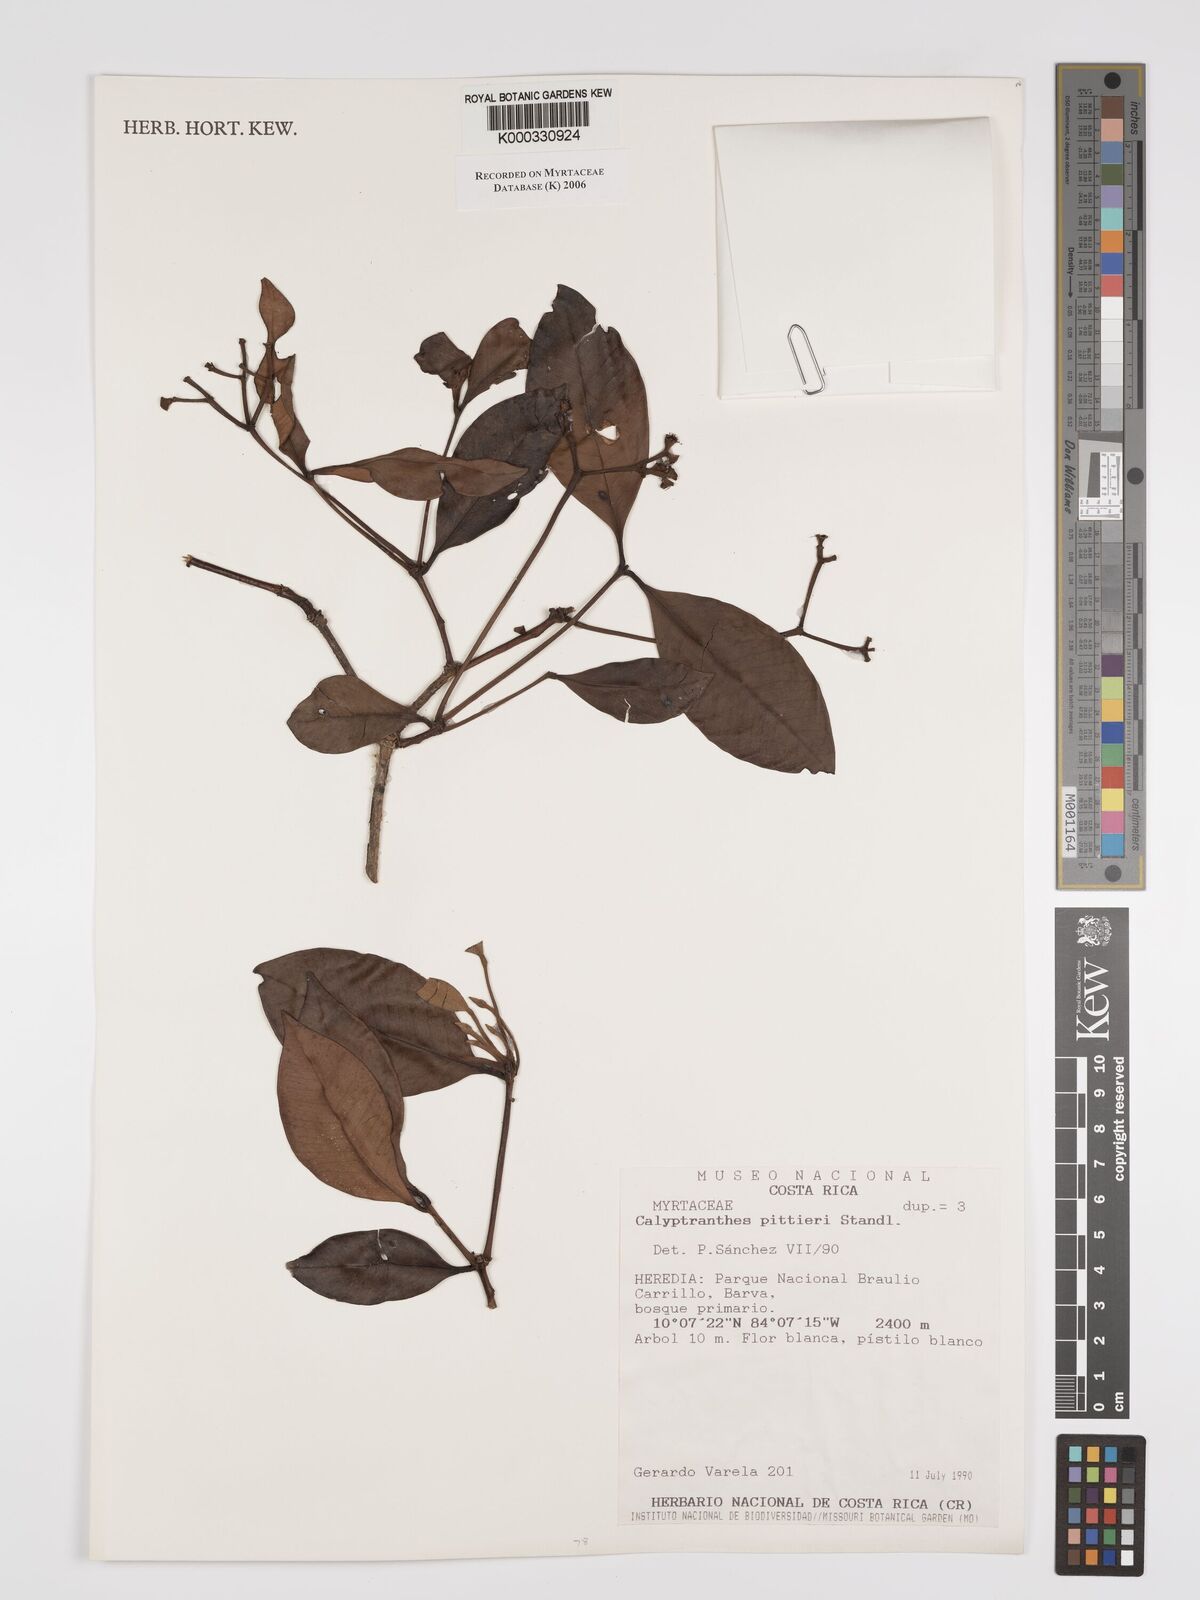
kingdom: Plantae
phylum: Tracheophyta
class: Magnoliopsida
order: Myrtales
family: Myrtaceae
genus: Myrcia
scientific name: Myrcia pittieri
